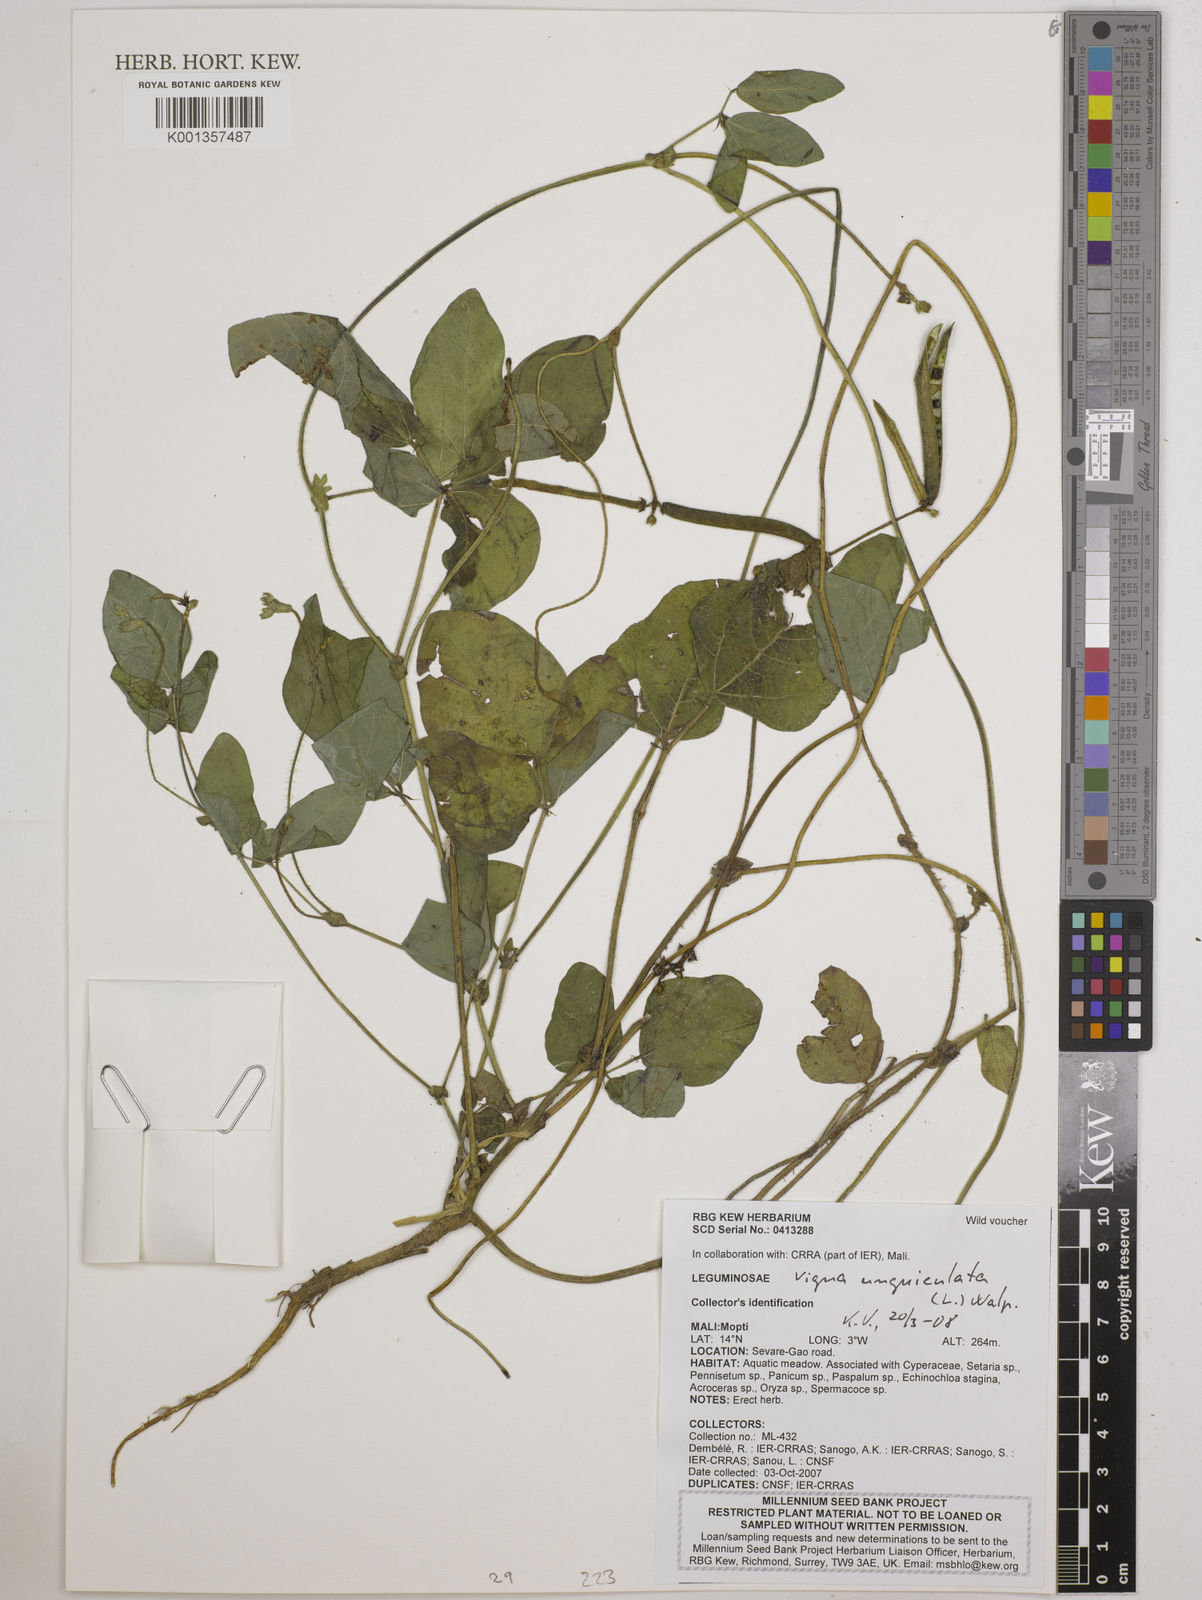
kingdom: Plantae
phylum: Tracheophyta
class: Magnoliopsida
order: Fabales
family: Fabaceae
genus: Vigna
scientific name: Vigna unguiculata
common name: Cowpea
